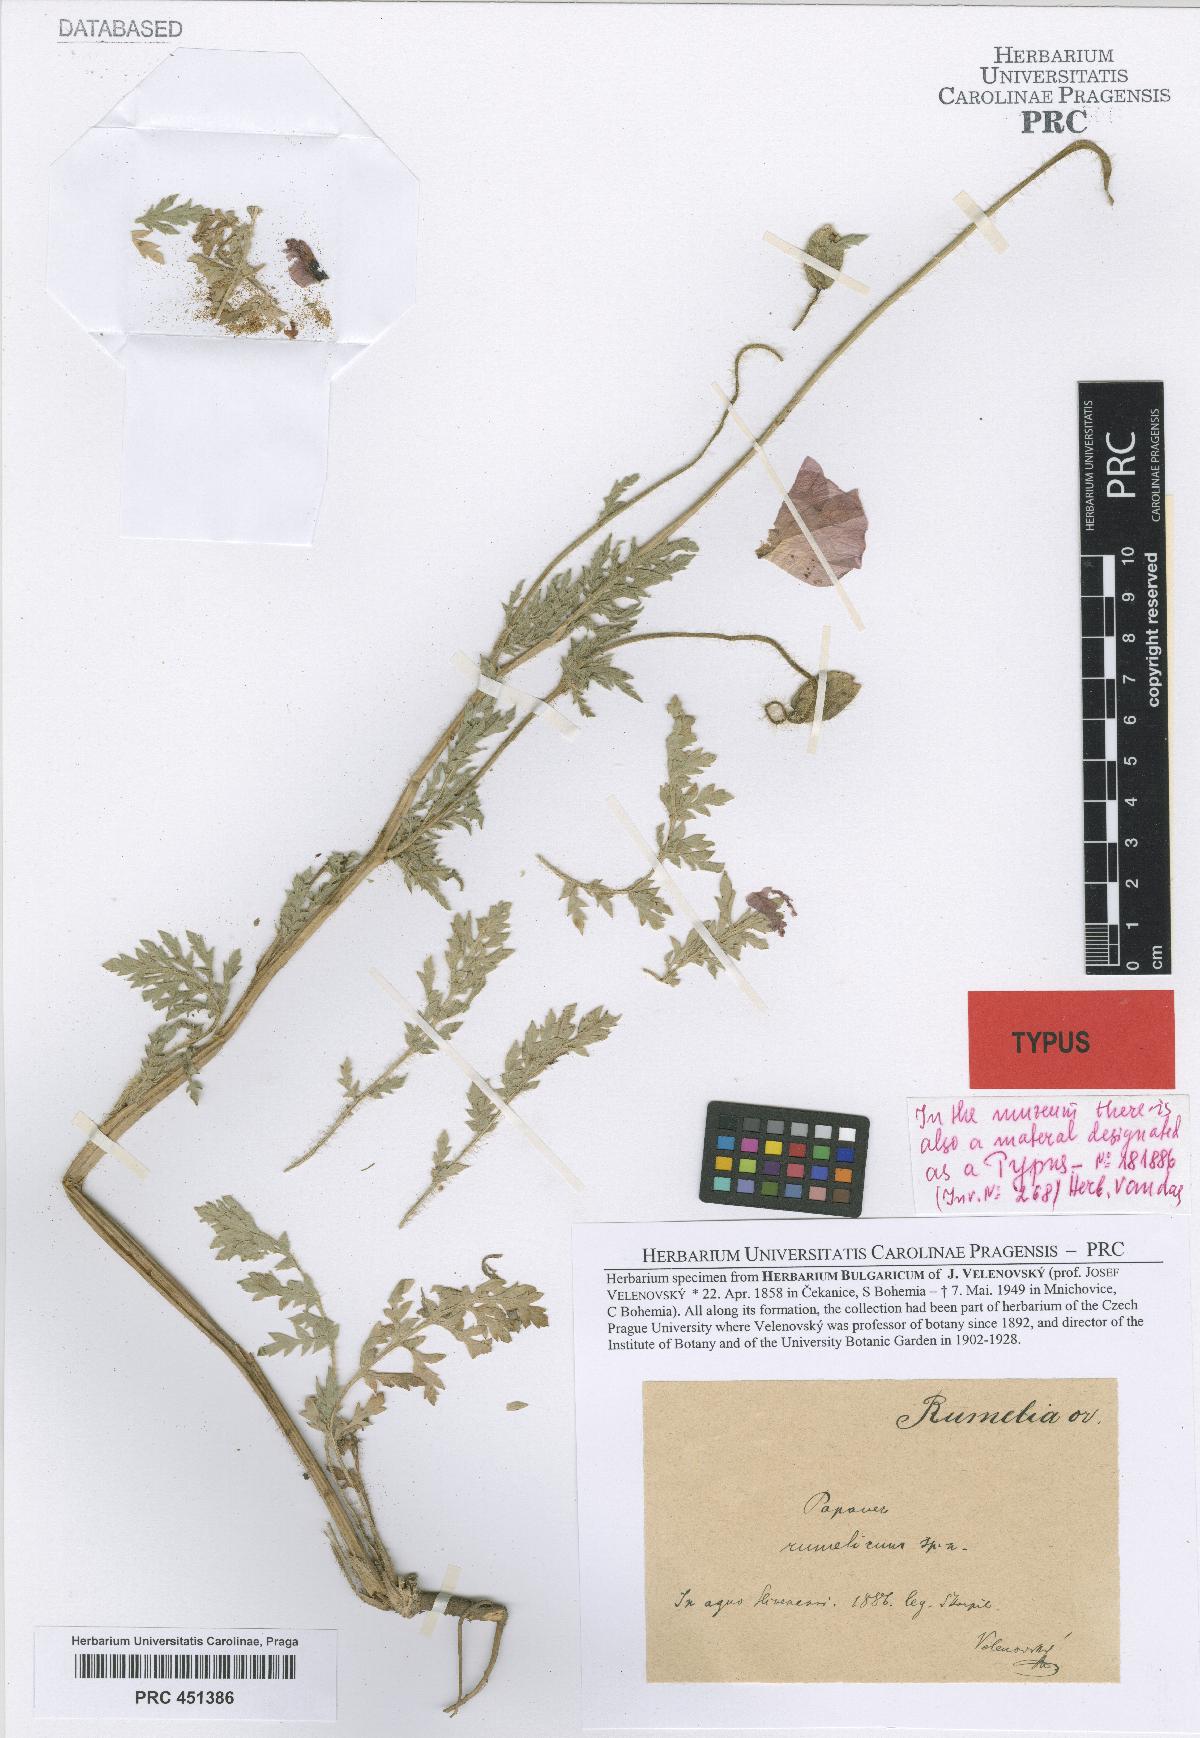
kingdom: Plantae
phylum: Tracheophyta
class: Magnoliopsida
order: Ranunculales
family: Papaveraceae
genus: Papaver
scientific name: Papaver rhoeas
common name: Corn poppy
